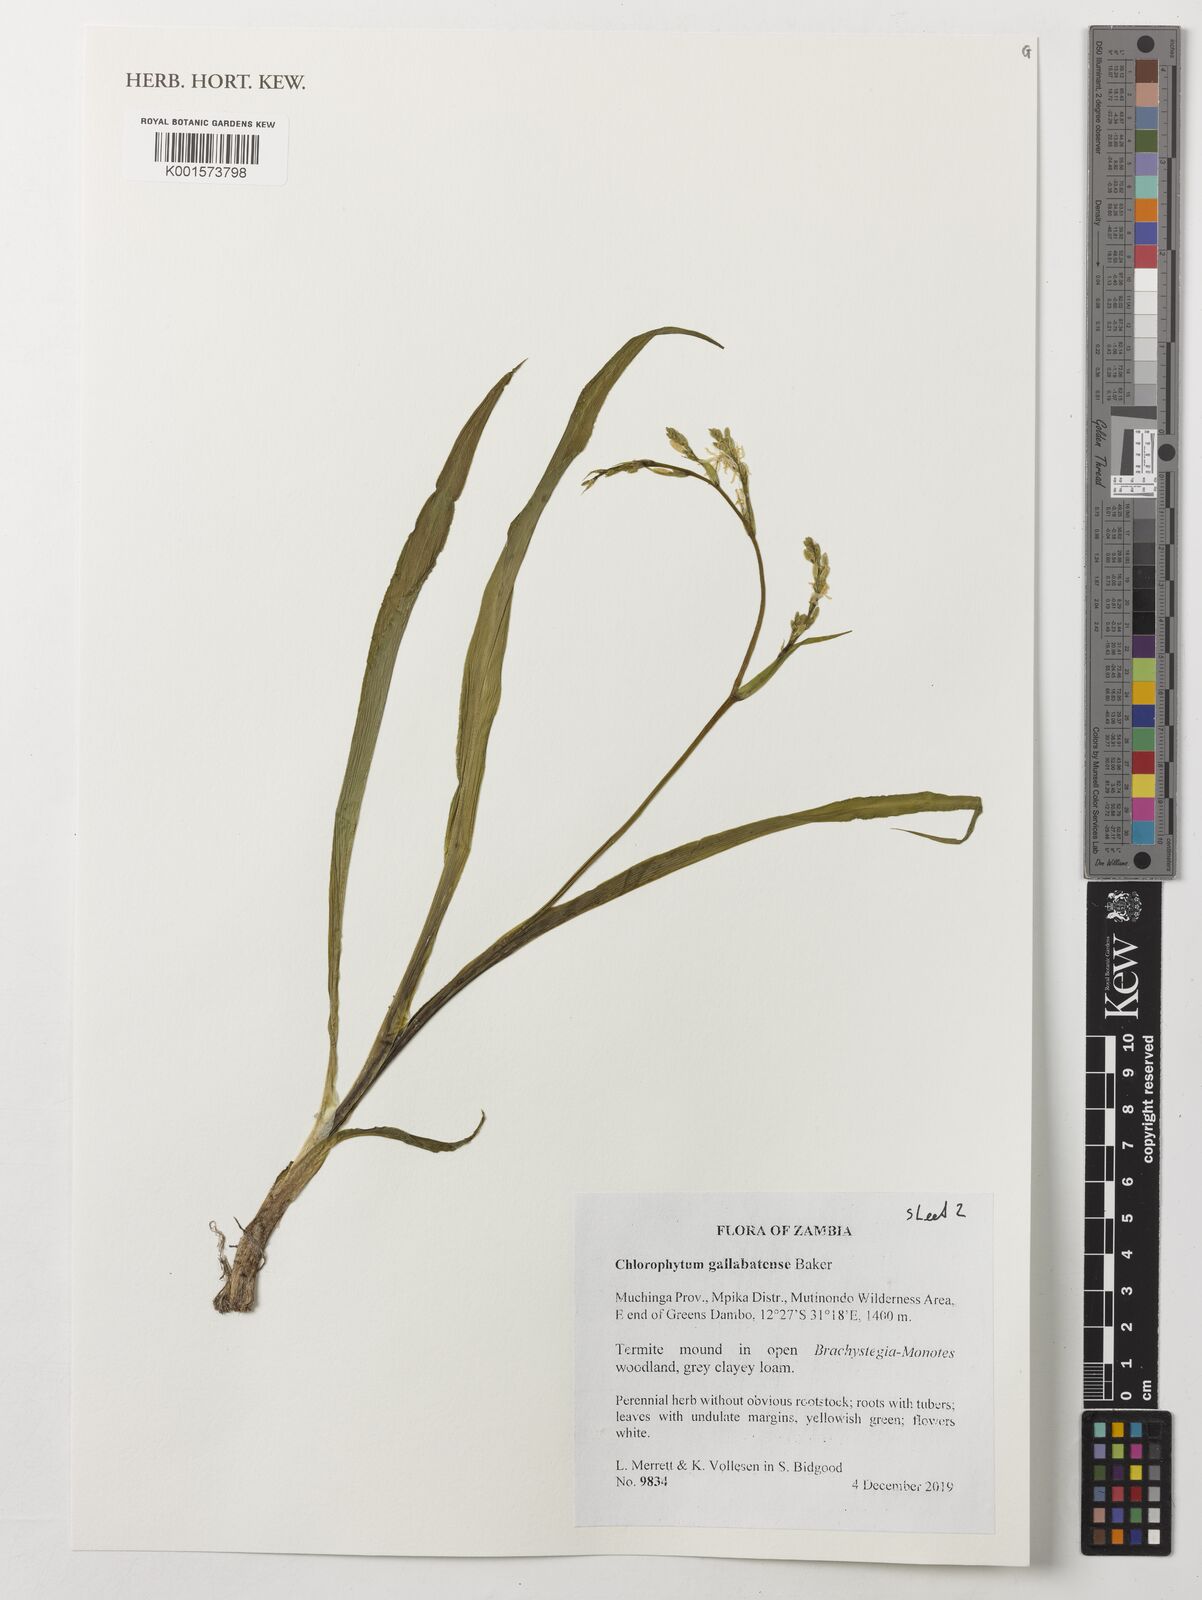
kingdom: Plantae
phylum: Tracheophyta
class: Liliopsida
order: Asparagales
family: Asparagaceae
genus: Chlorophytum
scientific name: Chlorophytum gallabatense
